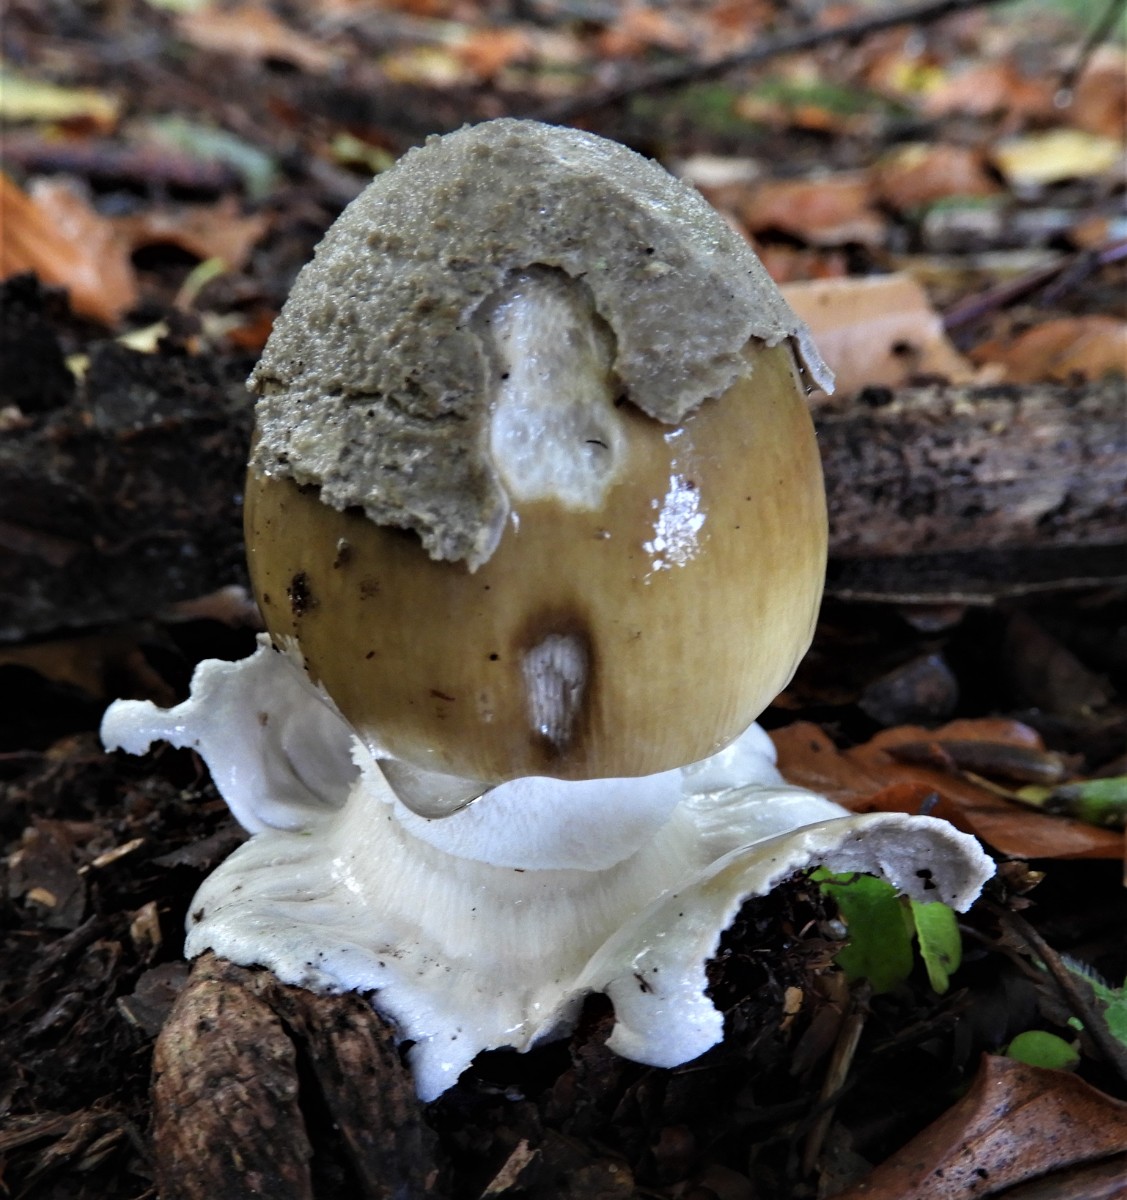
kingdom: Fungi
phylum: Basidiomycota
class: Agaricomycetes
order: Agaricales
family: Amanitaceae
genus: Amanita
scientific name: Amanita ceciliae
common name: stor kam-fluesvamp
